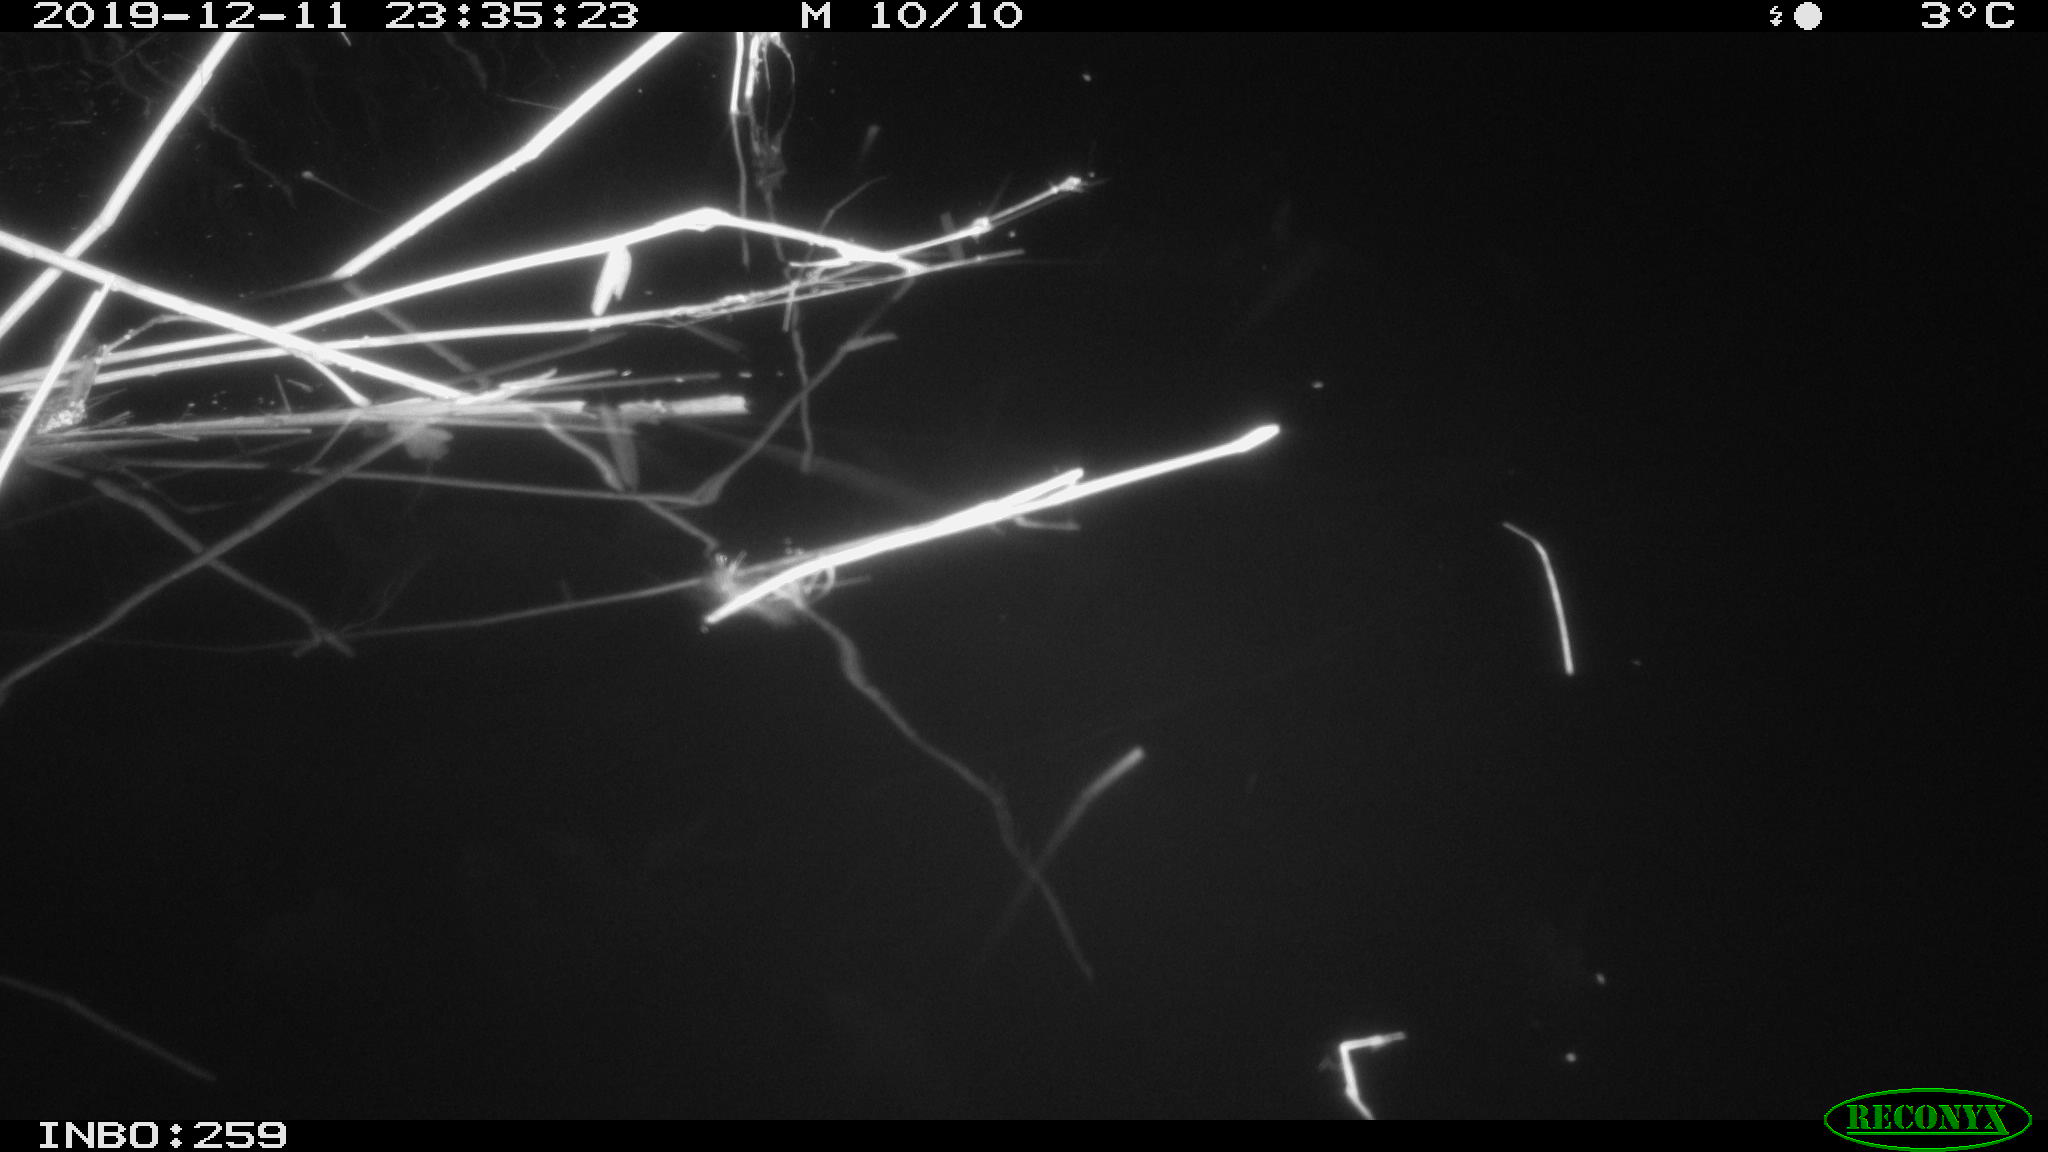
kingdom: Animalia
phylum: Chordata
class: Mammalia
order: Rodentia
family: Cricetidae
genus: Ondatra
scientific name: Ondatra zibethicus
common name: Muskrat
